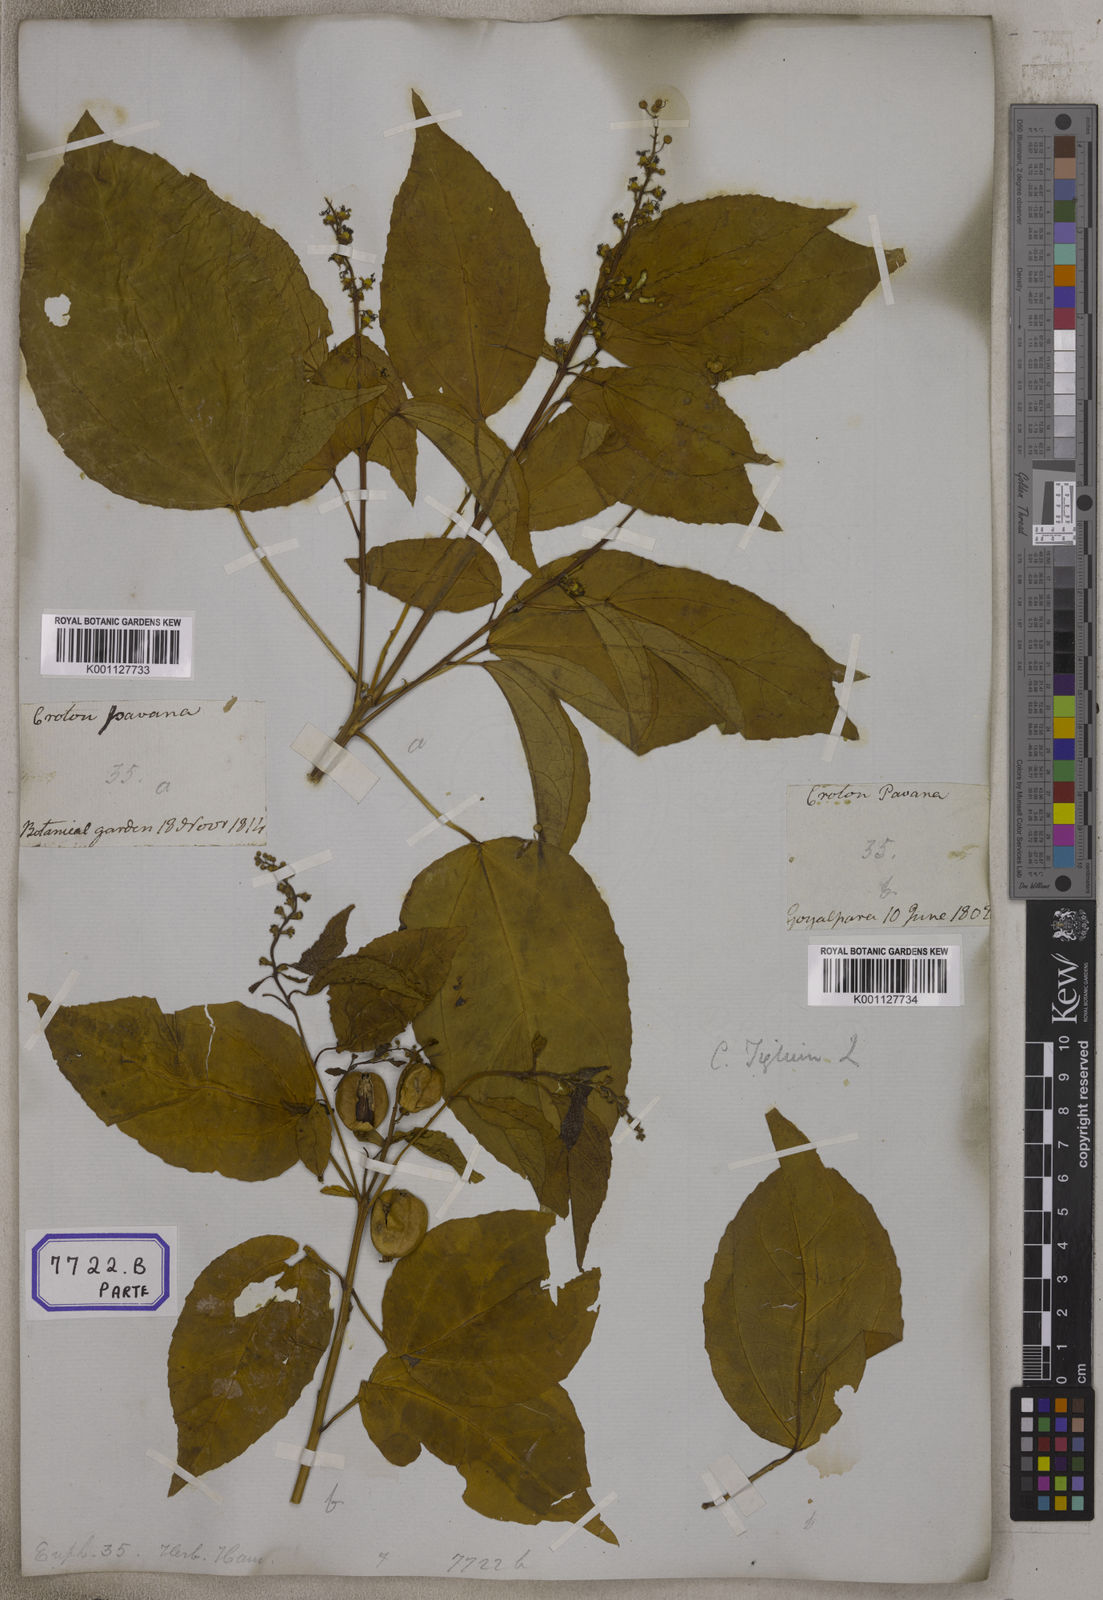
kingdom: Plantae
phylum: Tracheophyta
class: Magnoliopsida
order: Malpighiales
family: Euphorbiaceae
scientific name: Euphorbiaceae
